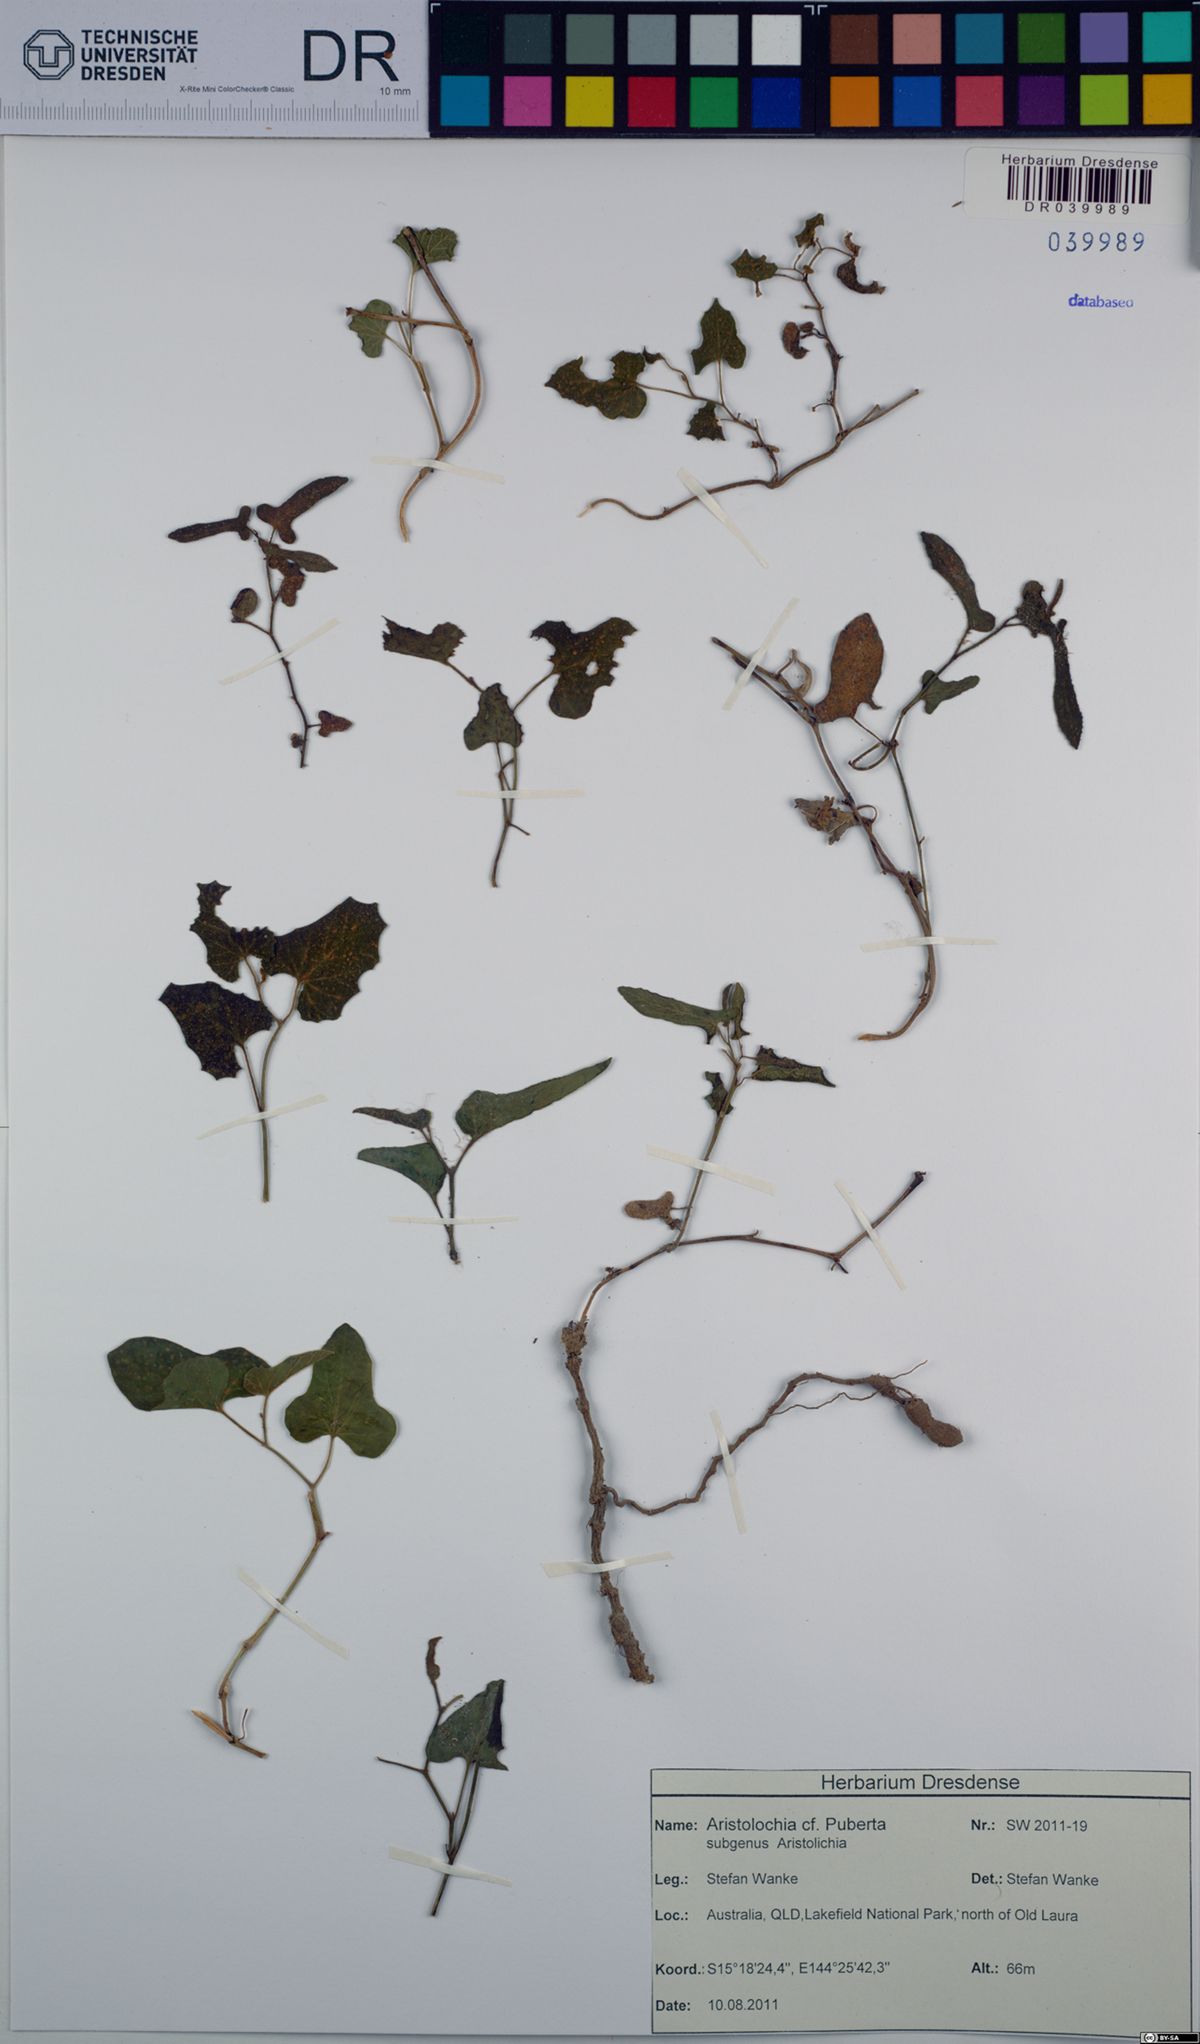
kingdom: Plantae
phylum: Tracheophyta
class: Magnoliopsida
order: Piperales
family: Aristolochiaceae
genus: Aristolochia
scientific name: Aristolochia pubera
